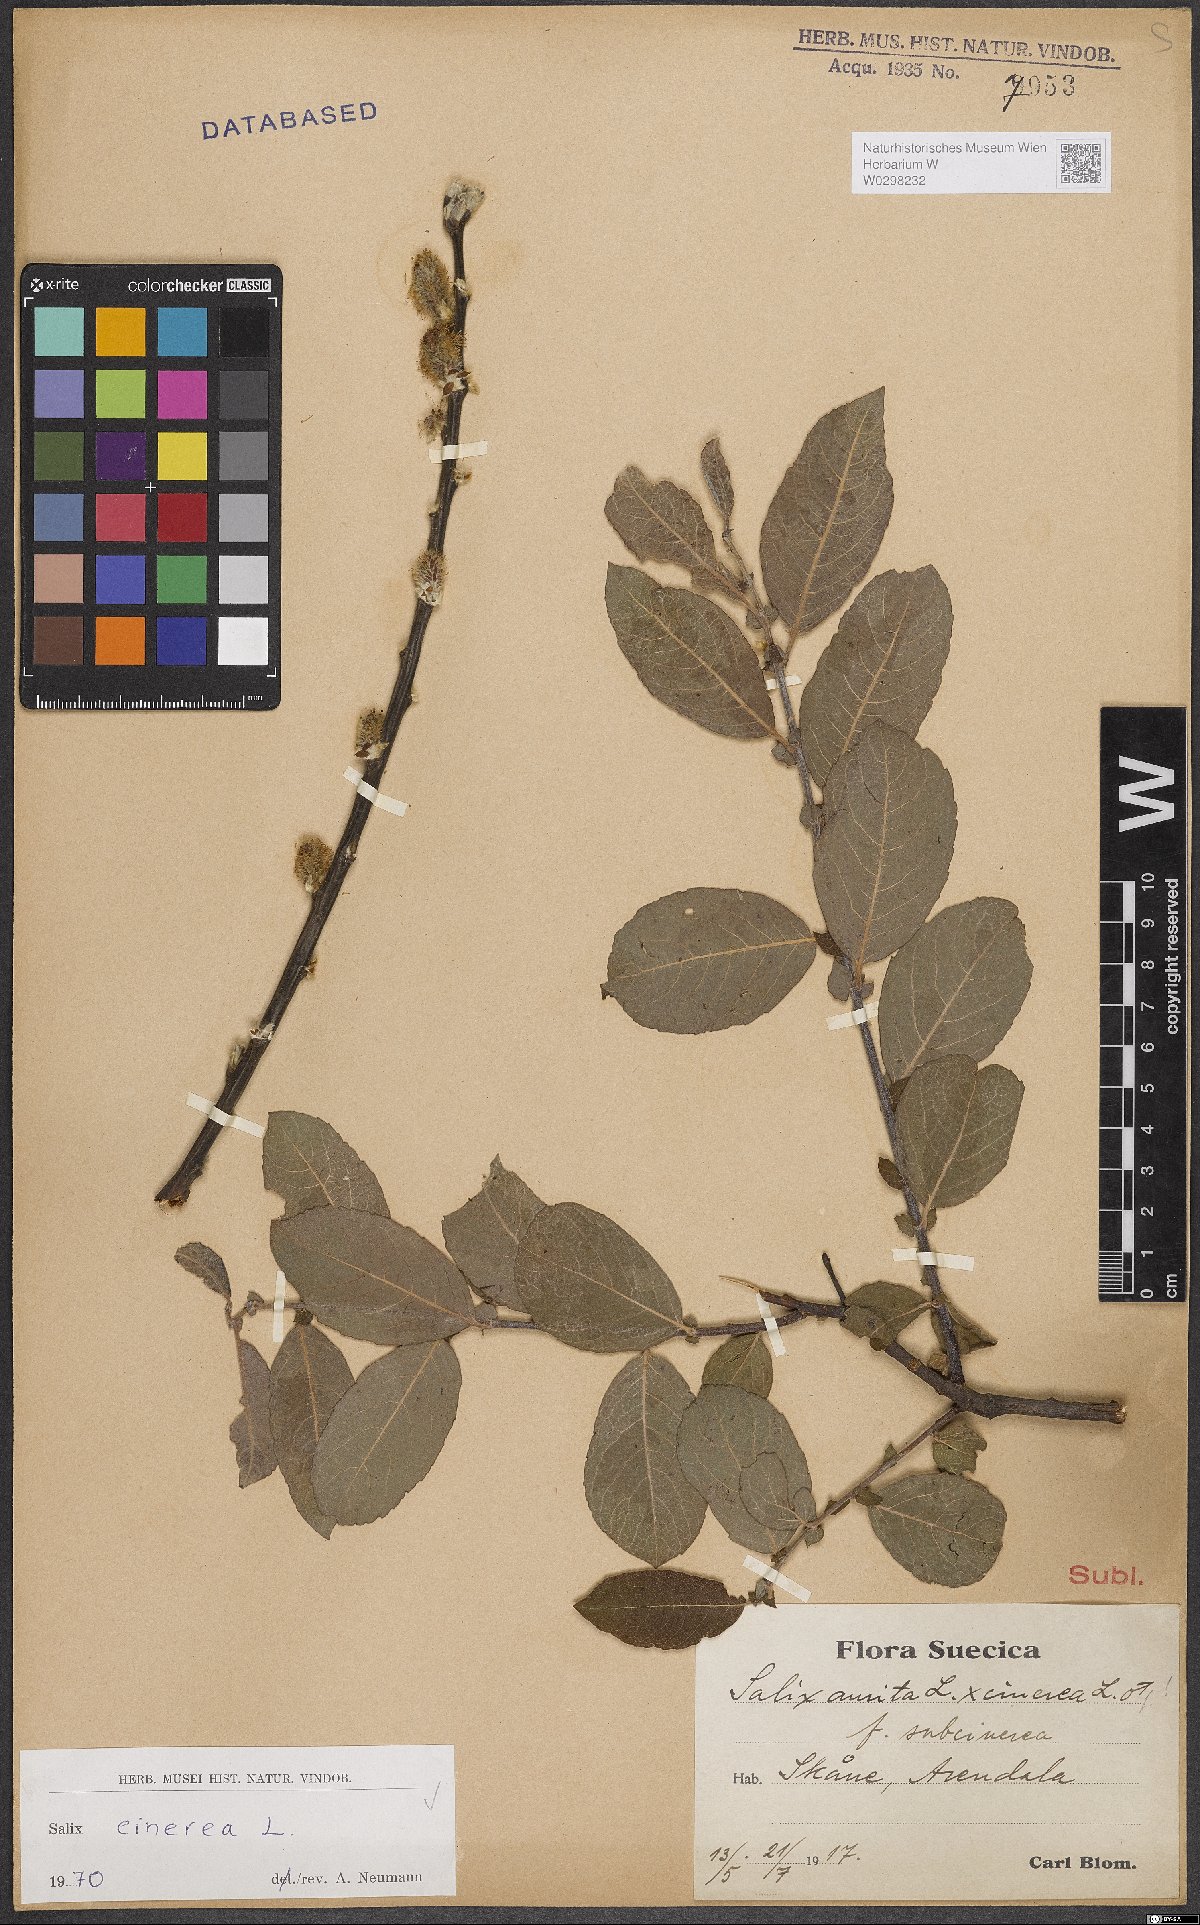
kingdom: Plantae
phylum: Tracheophyta
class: Magnoliopsida
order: Malpighiales
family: Salicaceae
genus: Salix
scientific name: Salix cinerea
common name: Common sallow
